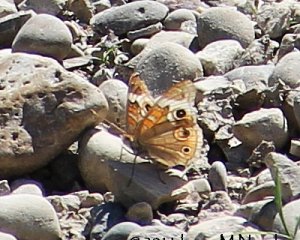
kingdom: Animalia
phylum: Arthropoda
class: Insecta
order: Lepidoptera
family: Nymphalidae
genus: Junonia
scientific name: Junonia coenia
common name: Common Buckeye
